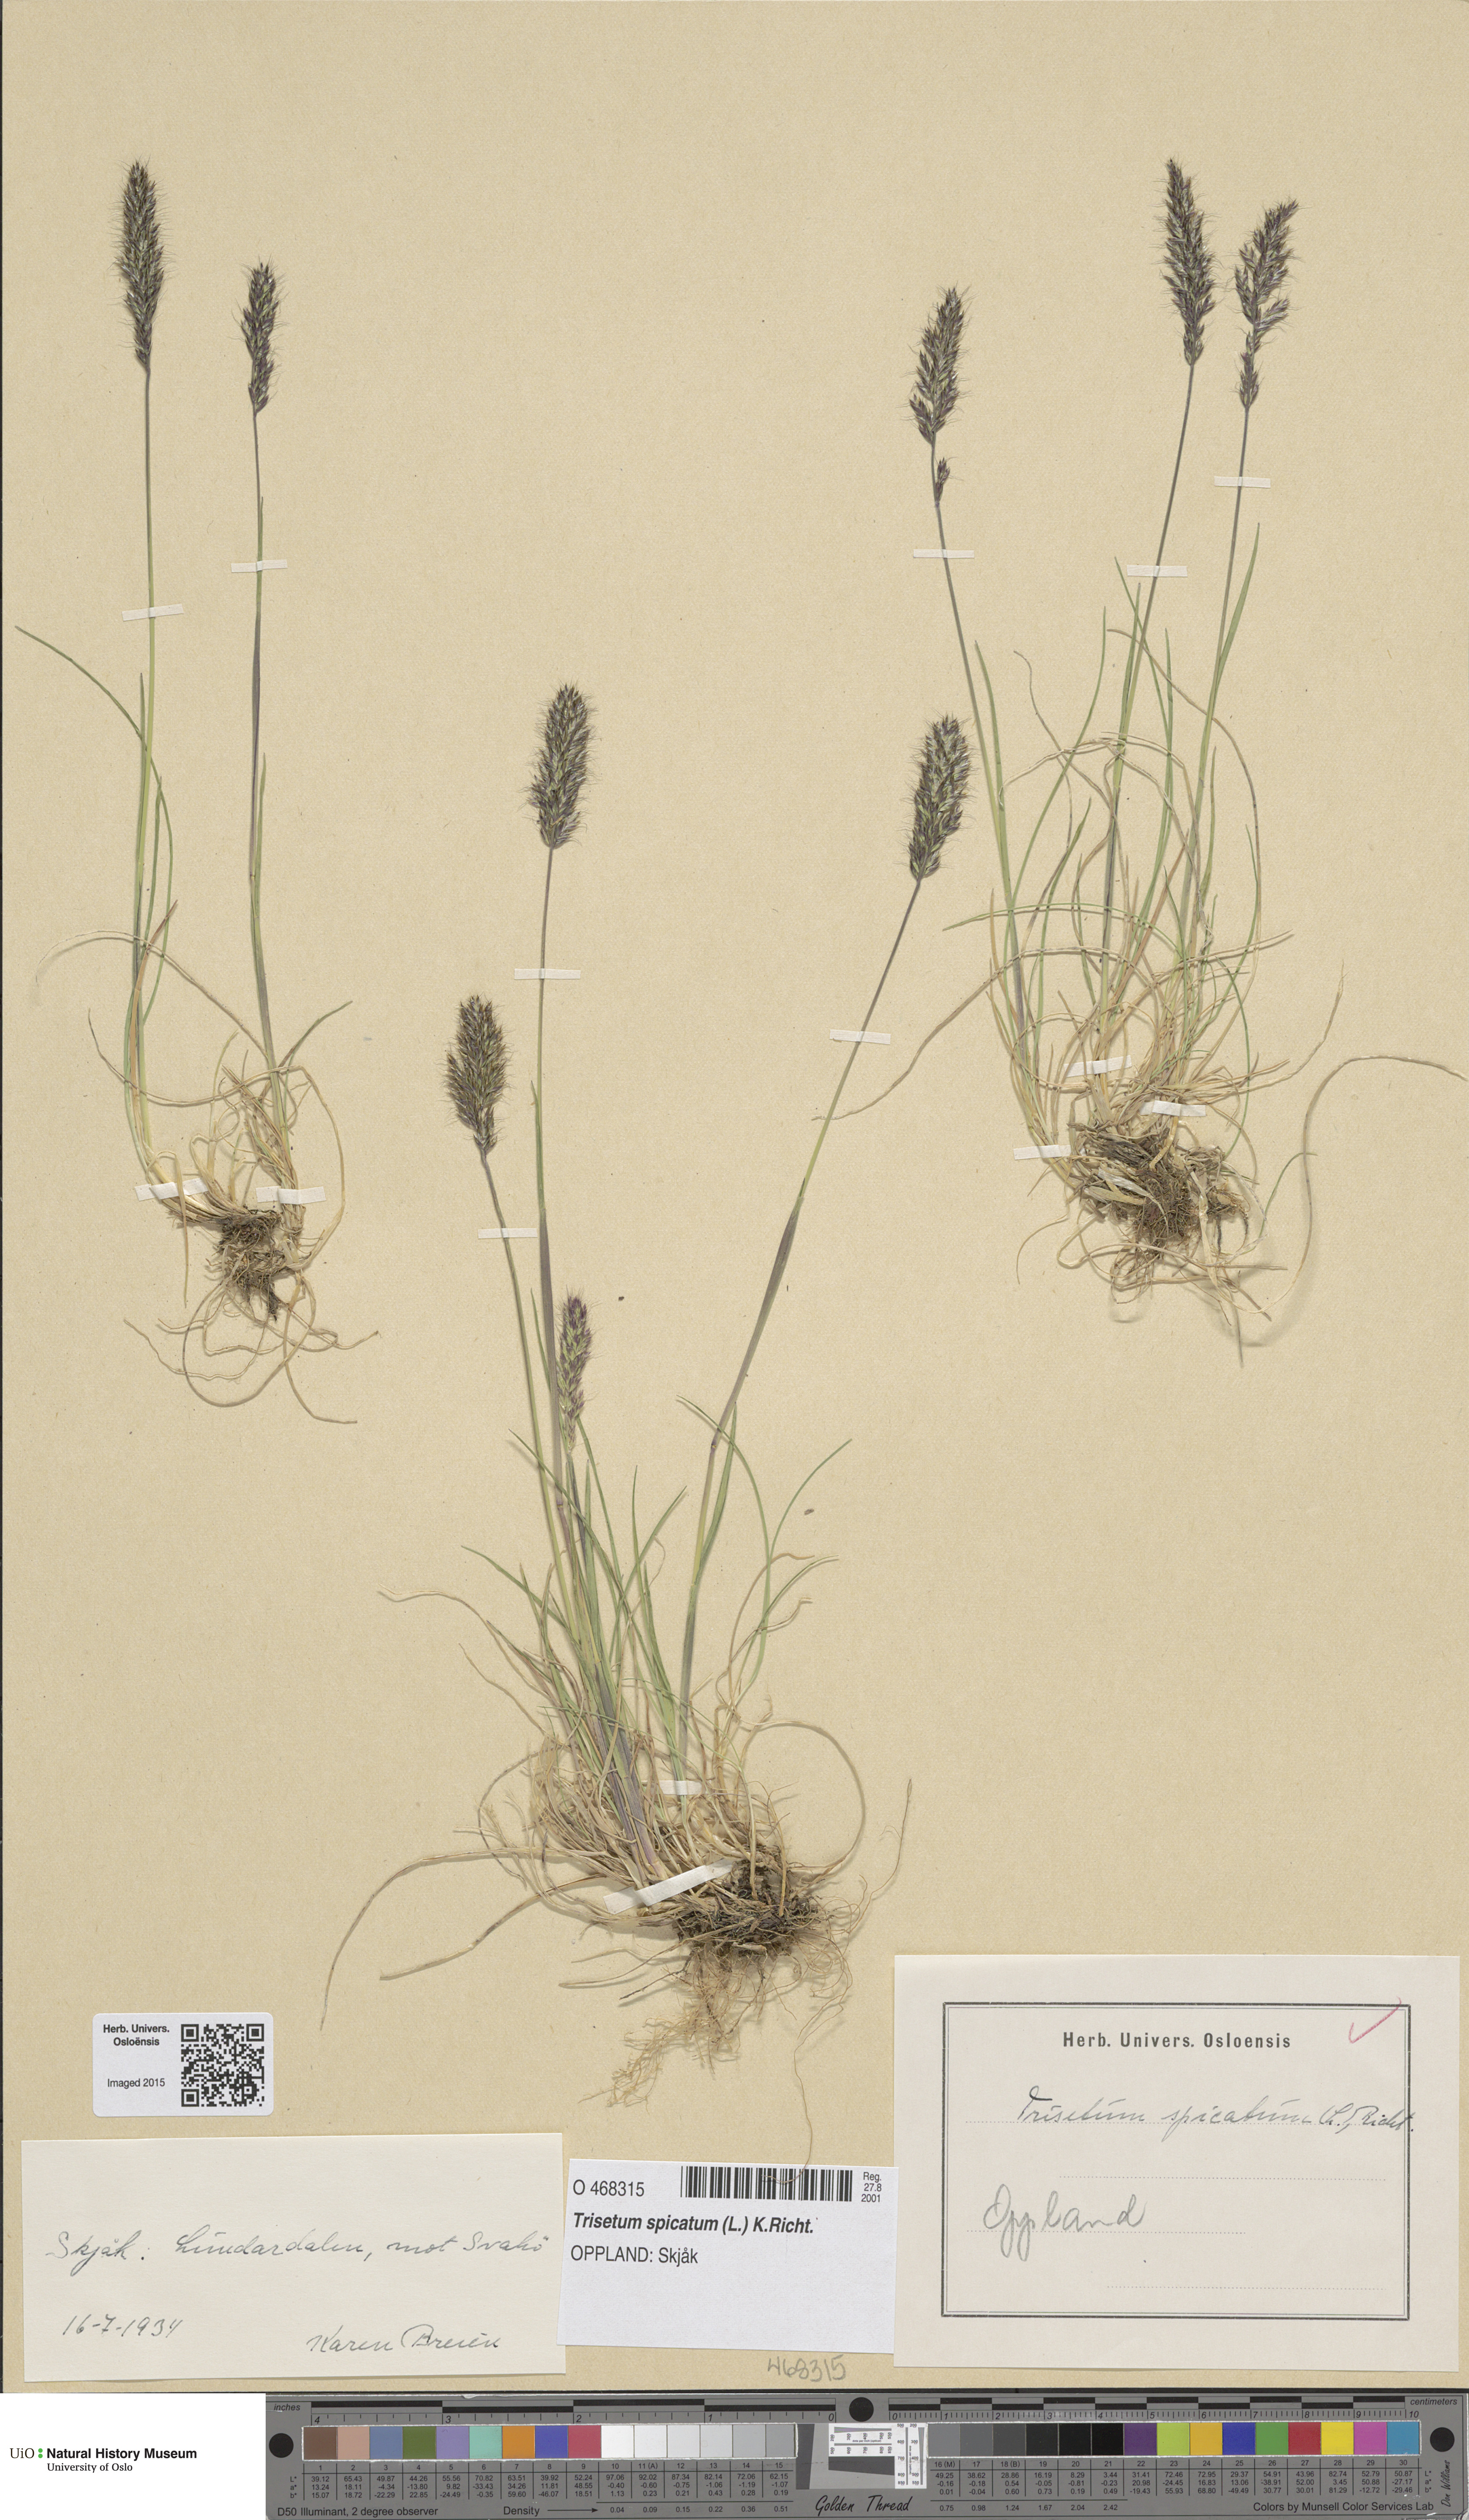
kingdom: Plantae
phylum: Tracheophyta
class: Liliopsida
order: Poales
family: Poaceae
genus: Koeleria
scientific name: Koeleria spicata
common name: Mountain trisetum
